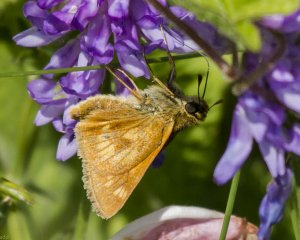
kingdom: Animalia
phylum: Arthropoda
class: Insecta
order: Lepidoptera
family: Hesperiidae
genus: Polites
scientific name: Polites
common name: Long Dash Skipper
